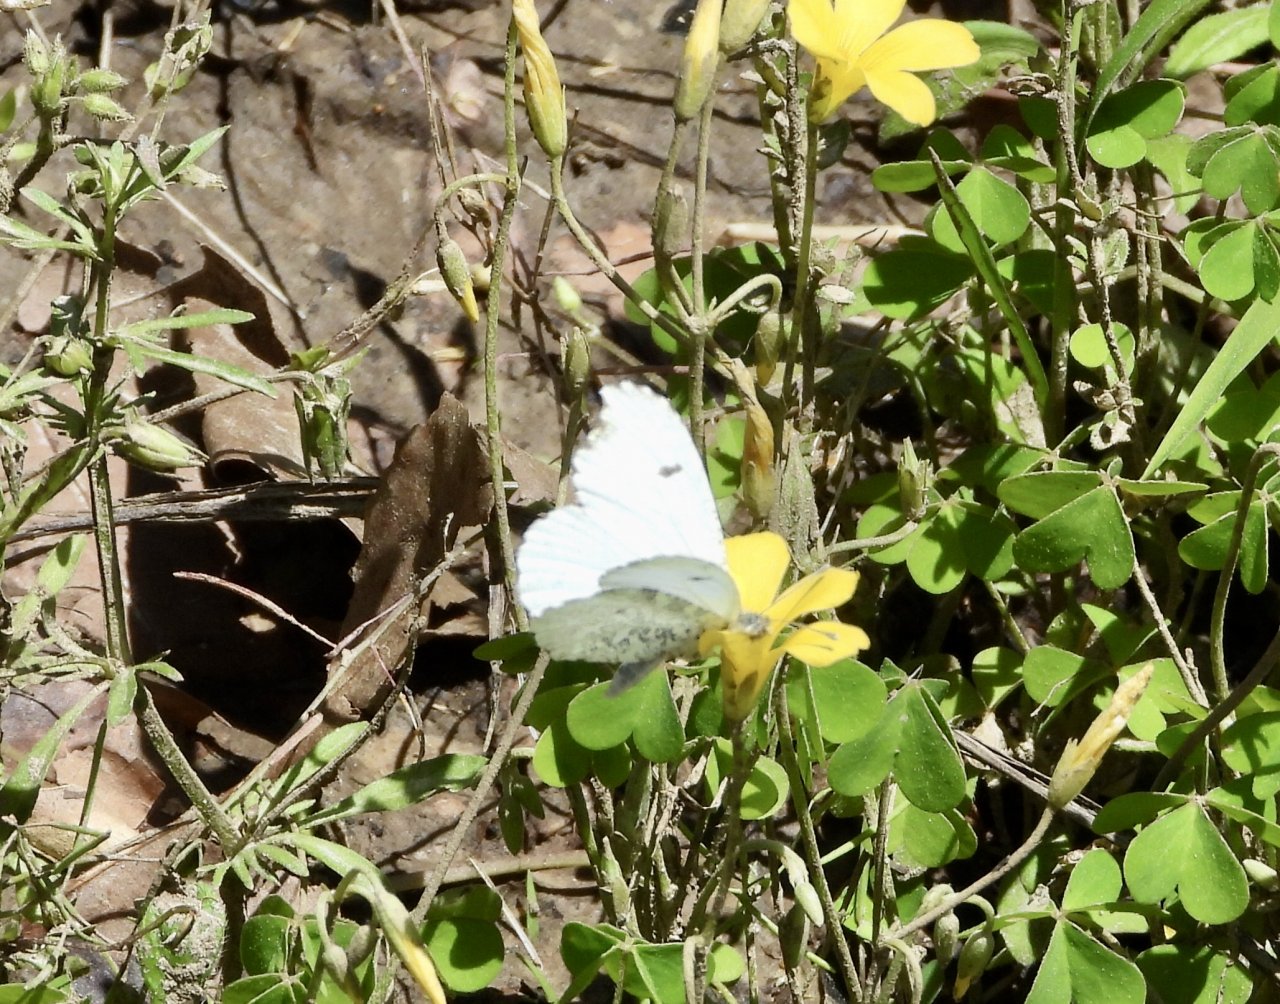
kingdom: Animalia
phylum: Arthropoda
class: Insecta
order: Lepidoptera
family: Pieridae
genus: Anthocharis
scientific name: Anthocharis midea
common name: Falcate Orangetip
